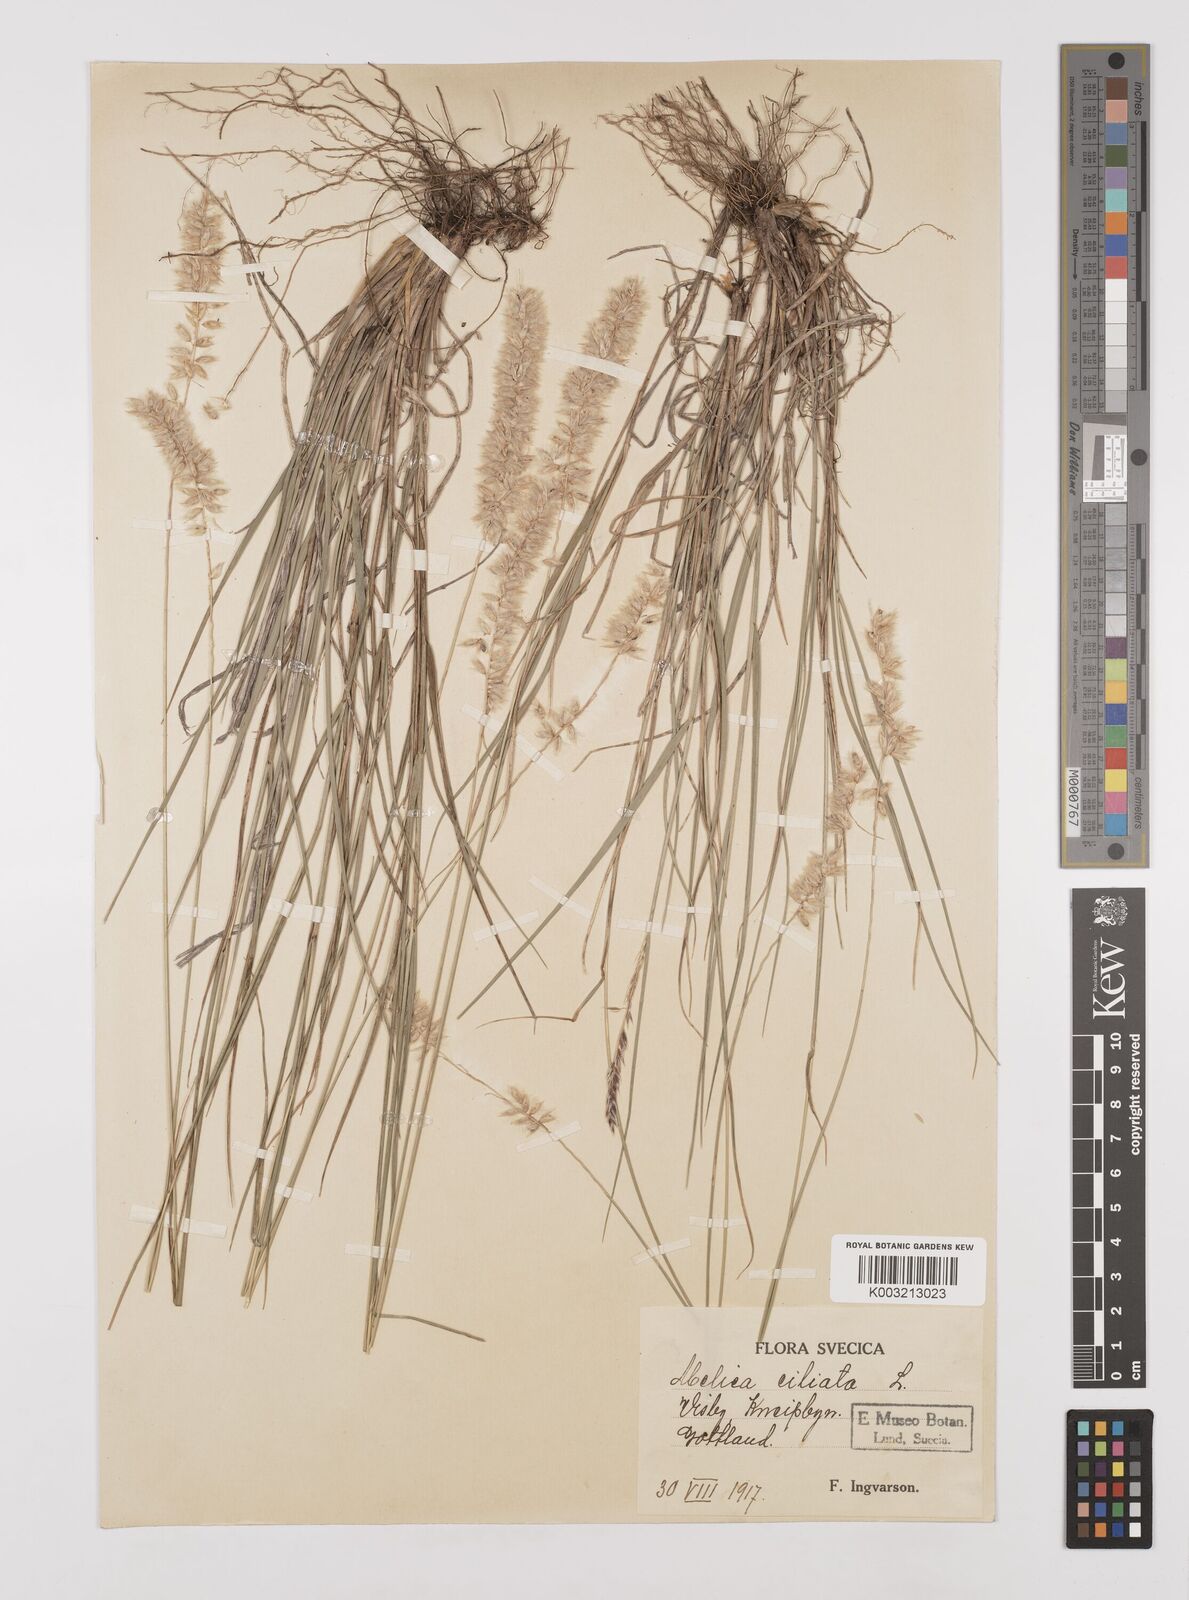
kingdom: Plantae
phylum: Tracheophyta
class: Liliopsida
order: Poales
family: Poaceae
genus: Melica
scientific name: Melica ciliata
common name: Hairy melicgrass
